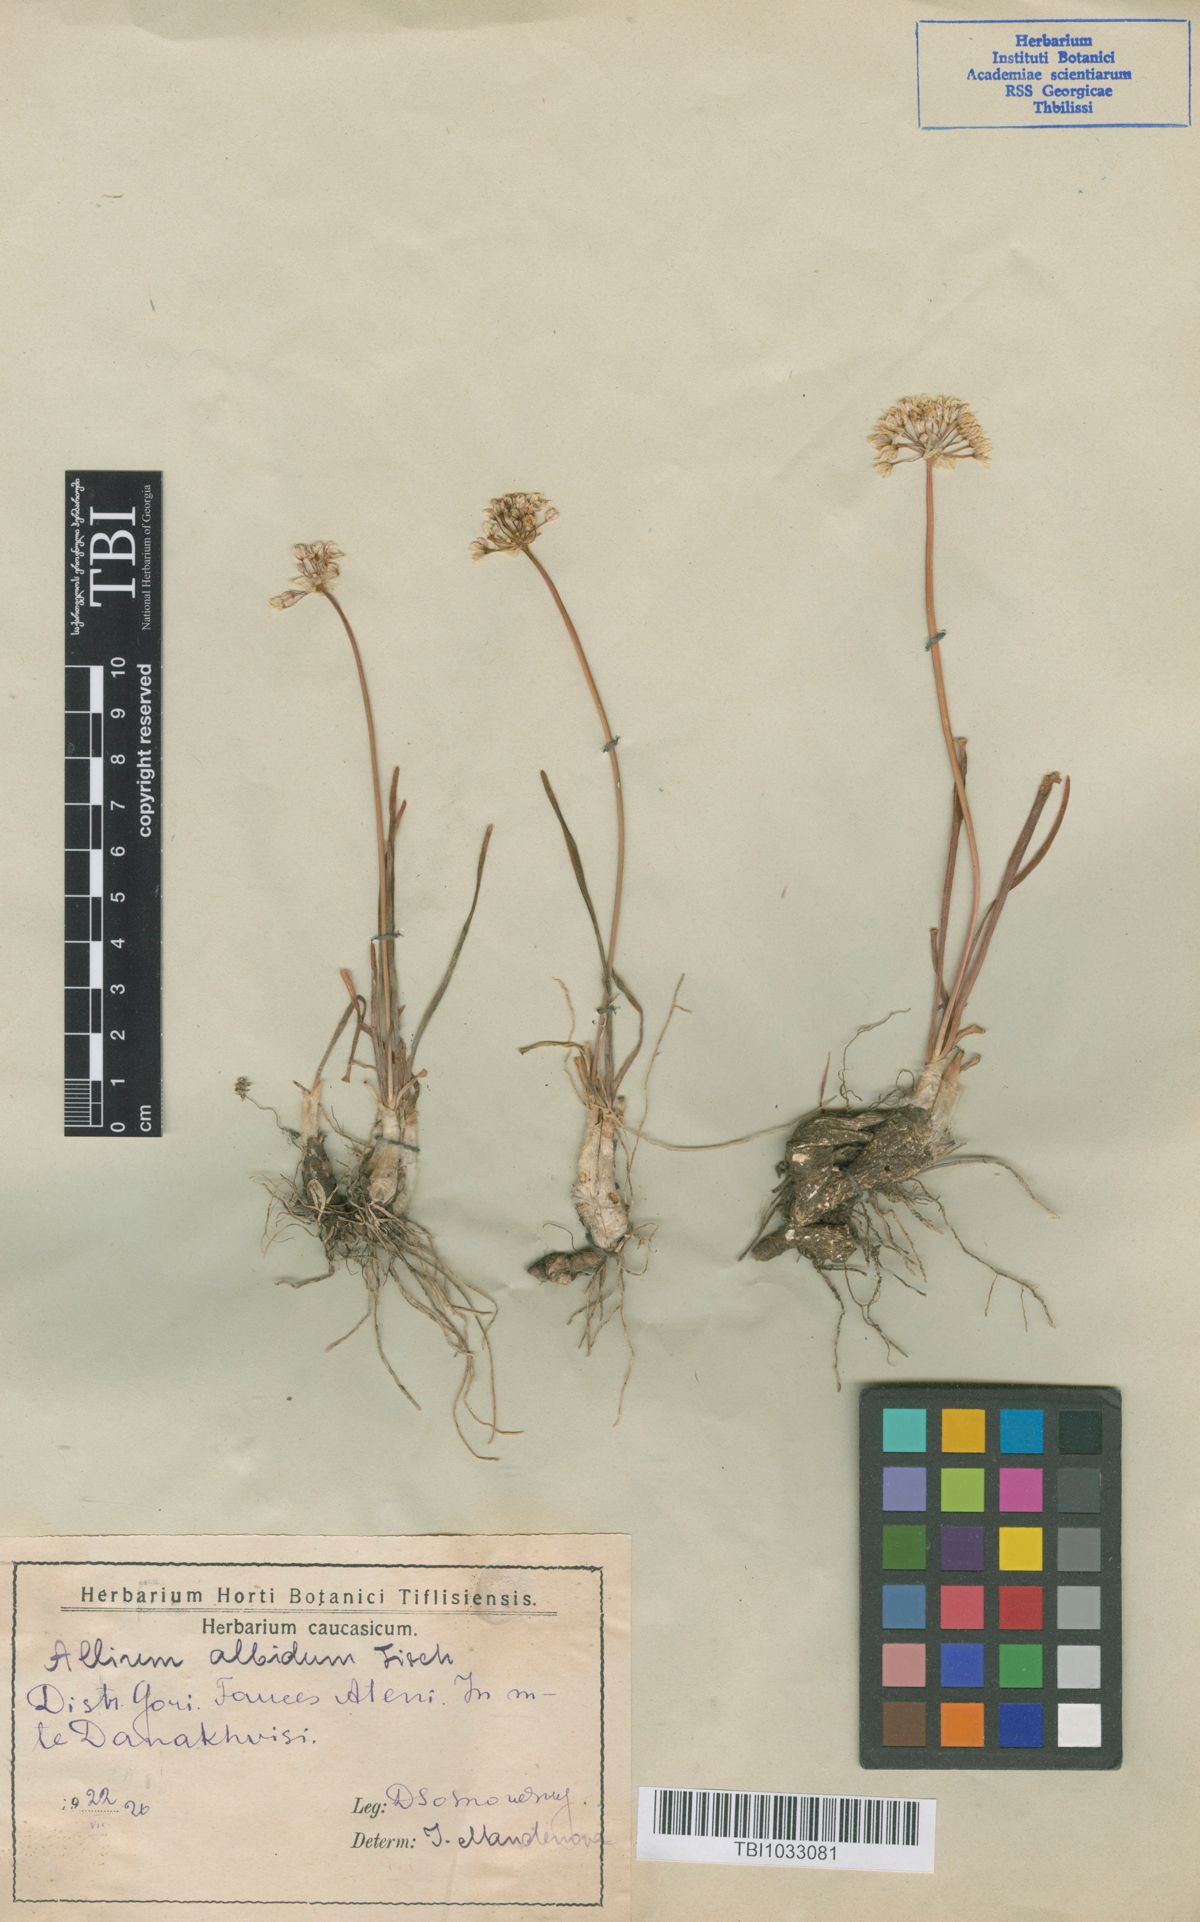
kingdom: Plantae
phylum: Tracheophyta
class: Liliopsida
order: Asparagales
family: Amaryllidaceae
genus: Allium
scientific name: Allium denudatum
